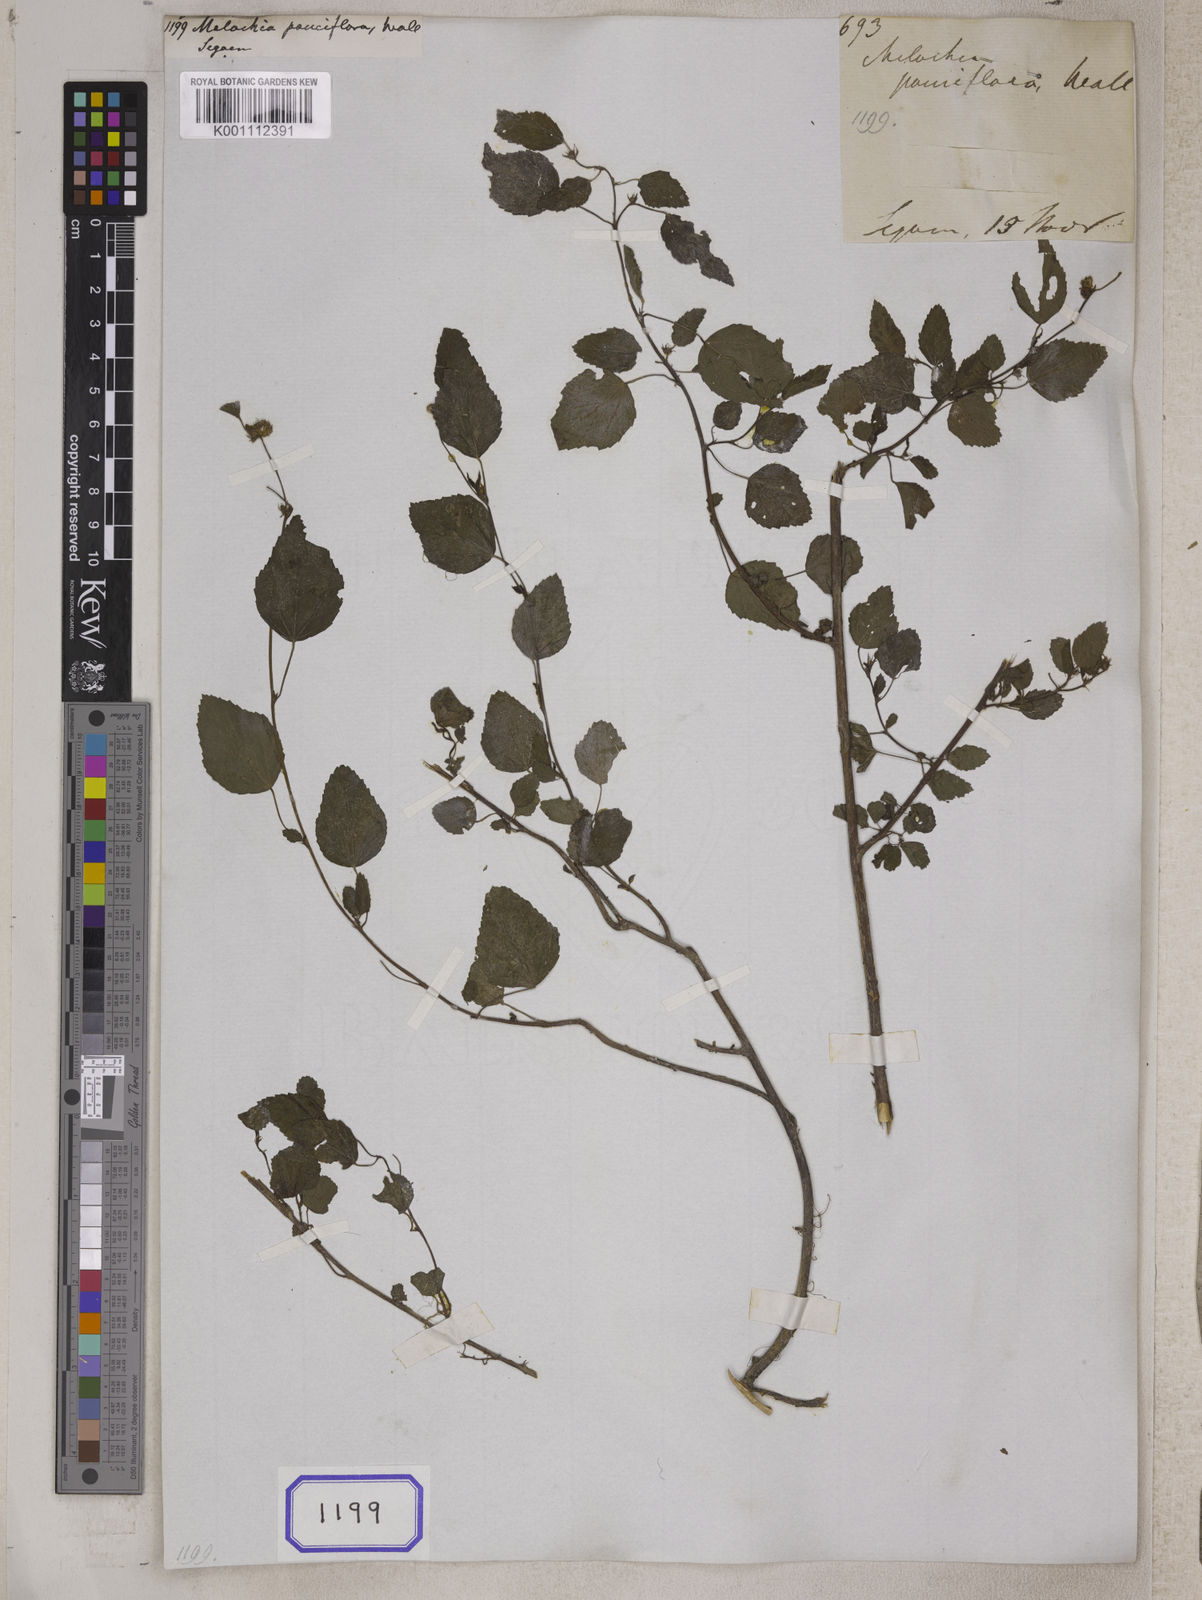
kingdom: Plantae
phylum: Tracheophyta
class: Magnoliopsida
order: Malvales
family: Malvaceae
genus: Melochia
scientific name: Melochia corchorifolia
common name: Chocolateweed
